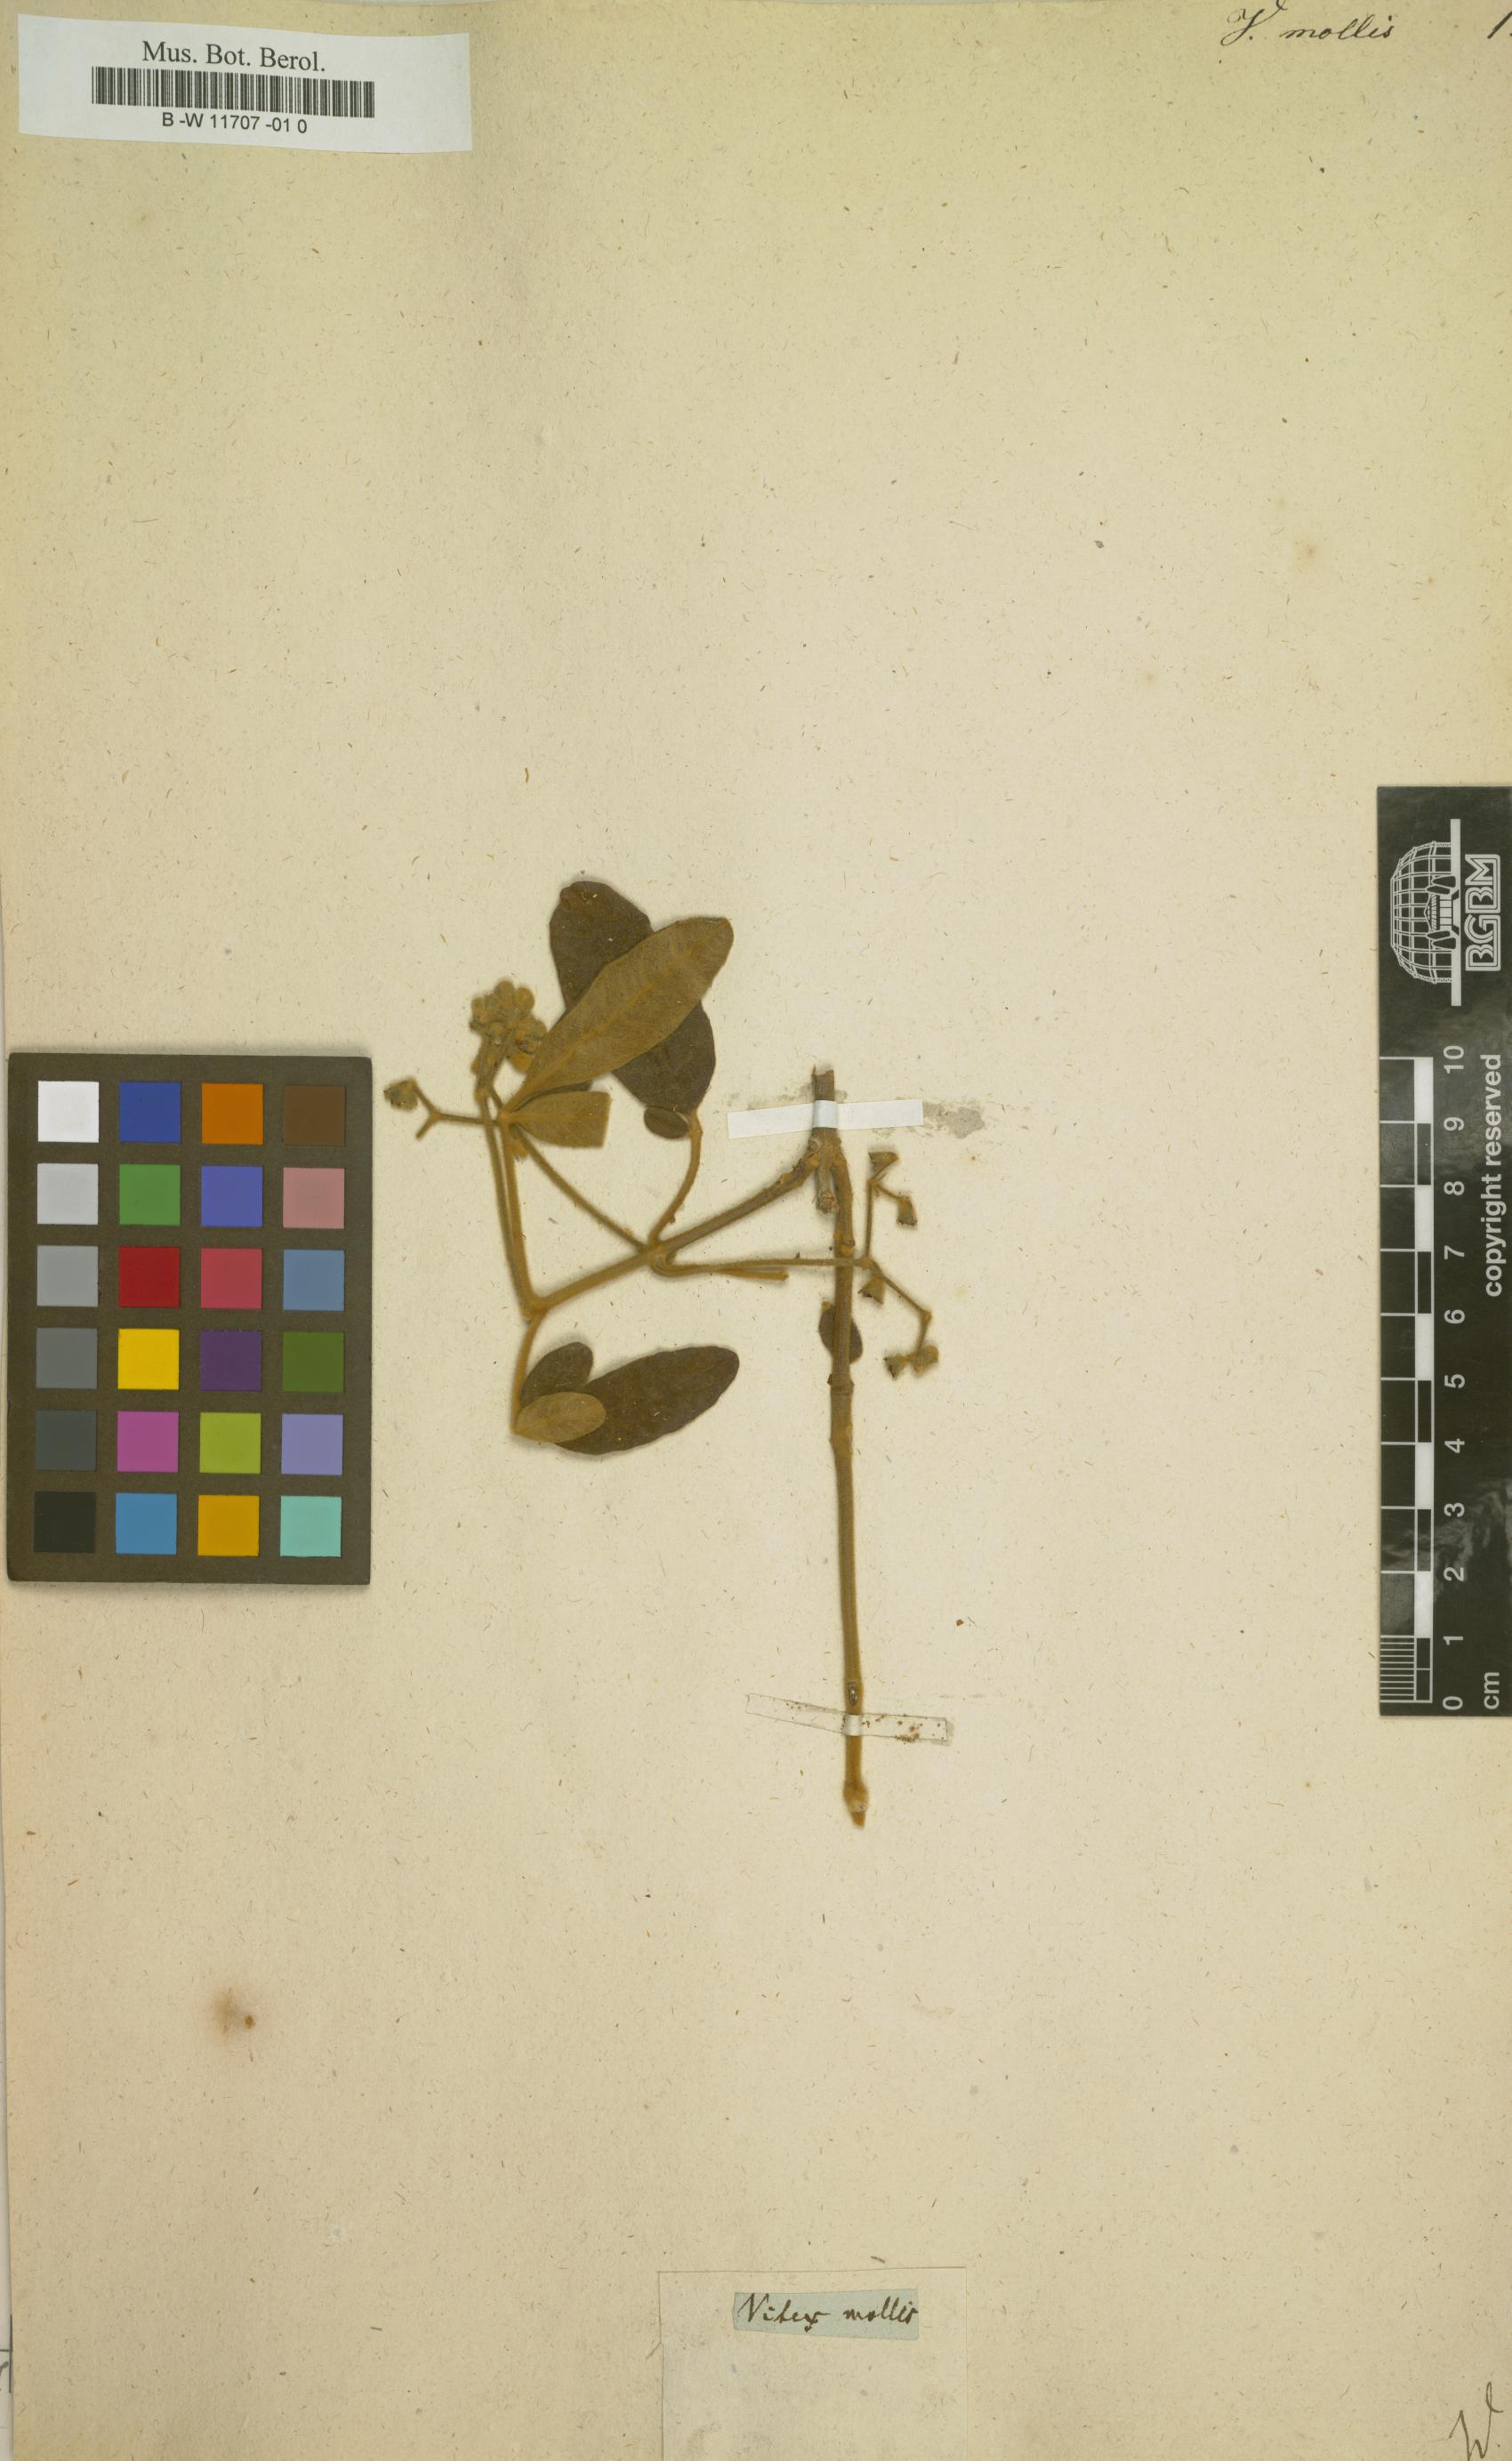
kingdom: Plantae
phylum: Tracheophyta
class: Magnoliopsida
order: Lamiales
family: Lamiaceae
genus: Vitex
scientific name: Vitex mollis
